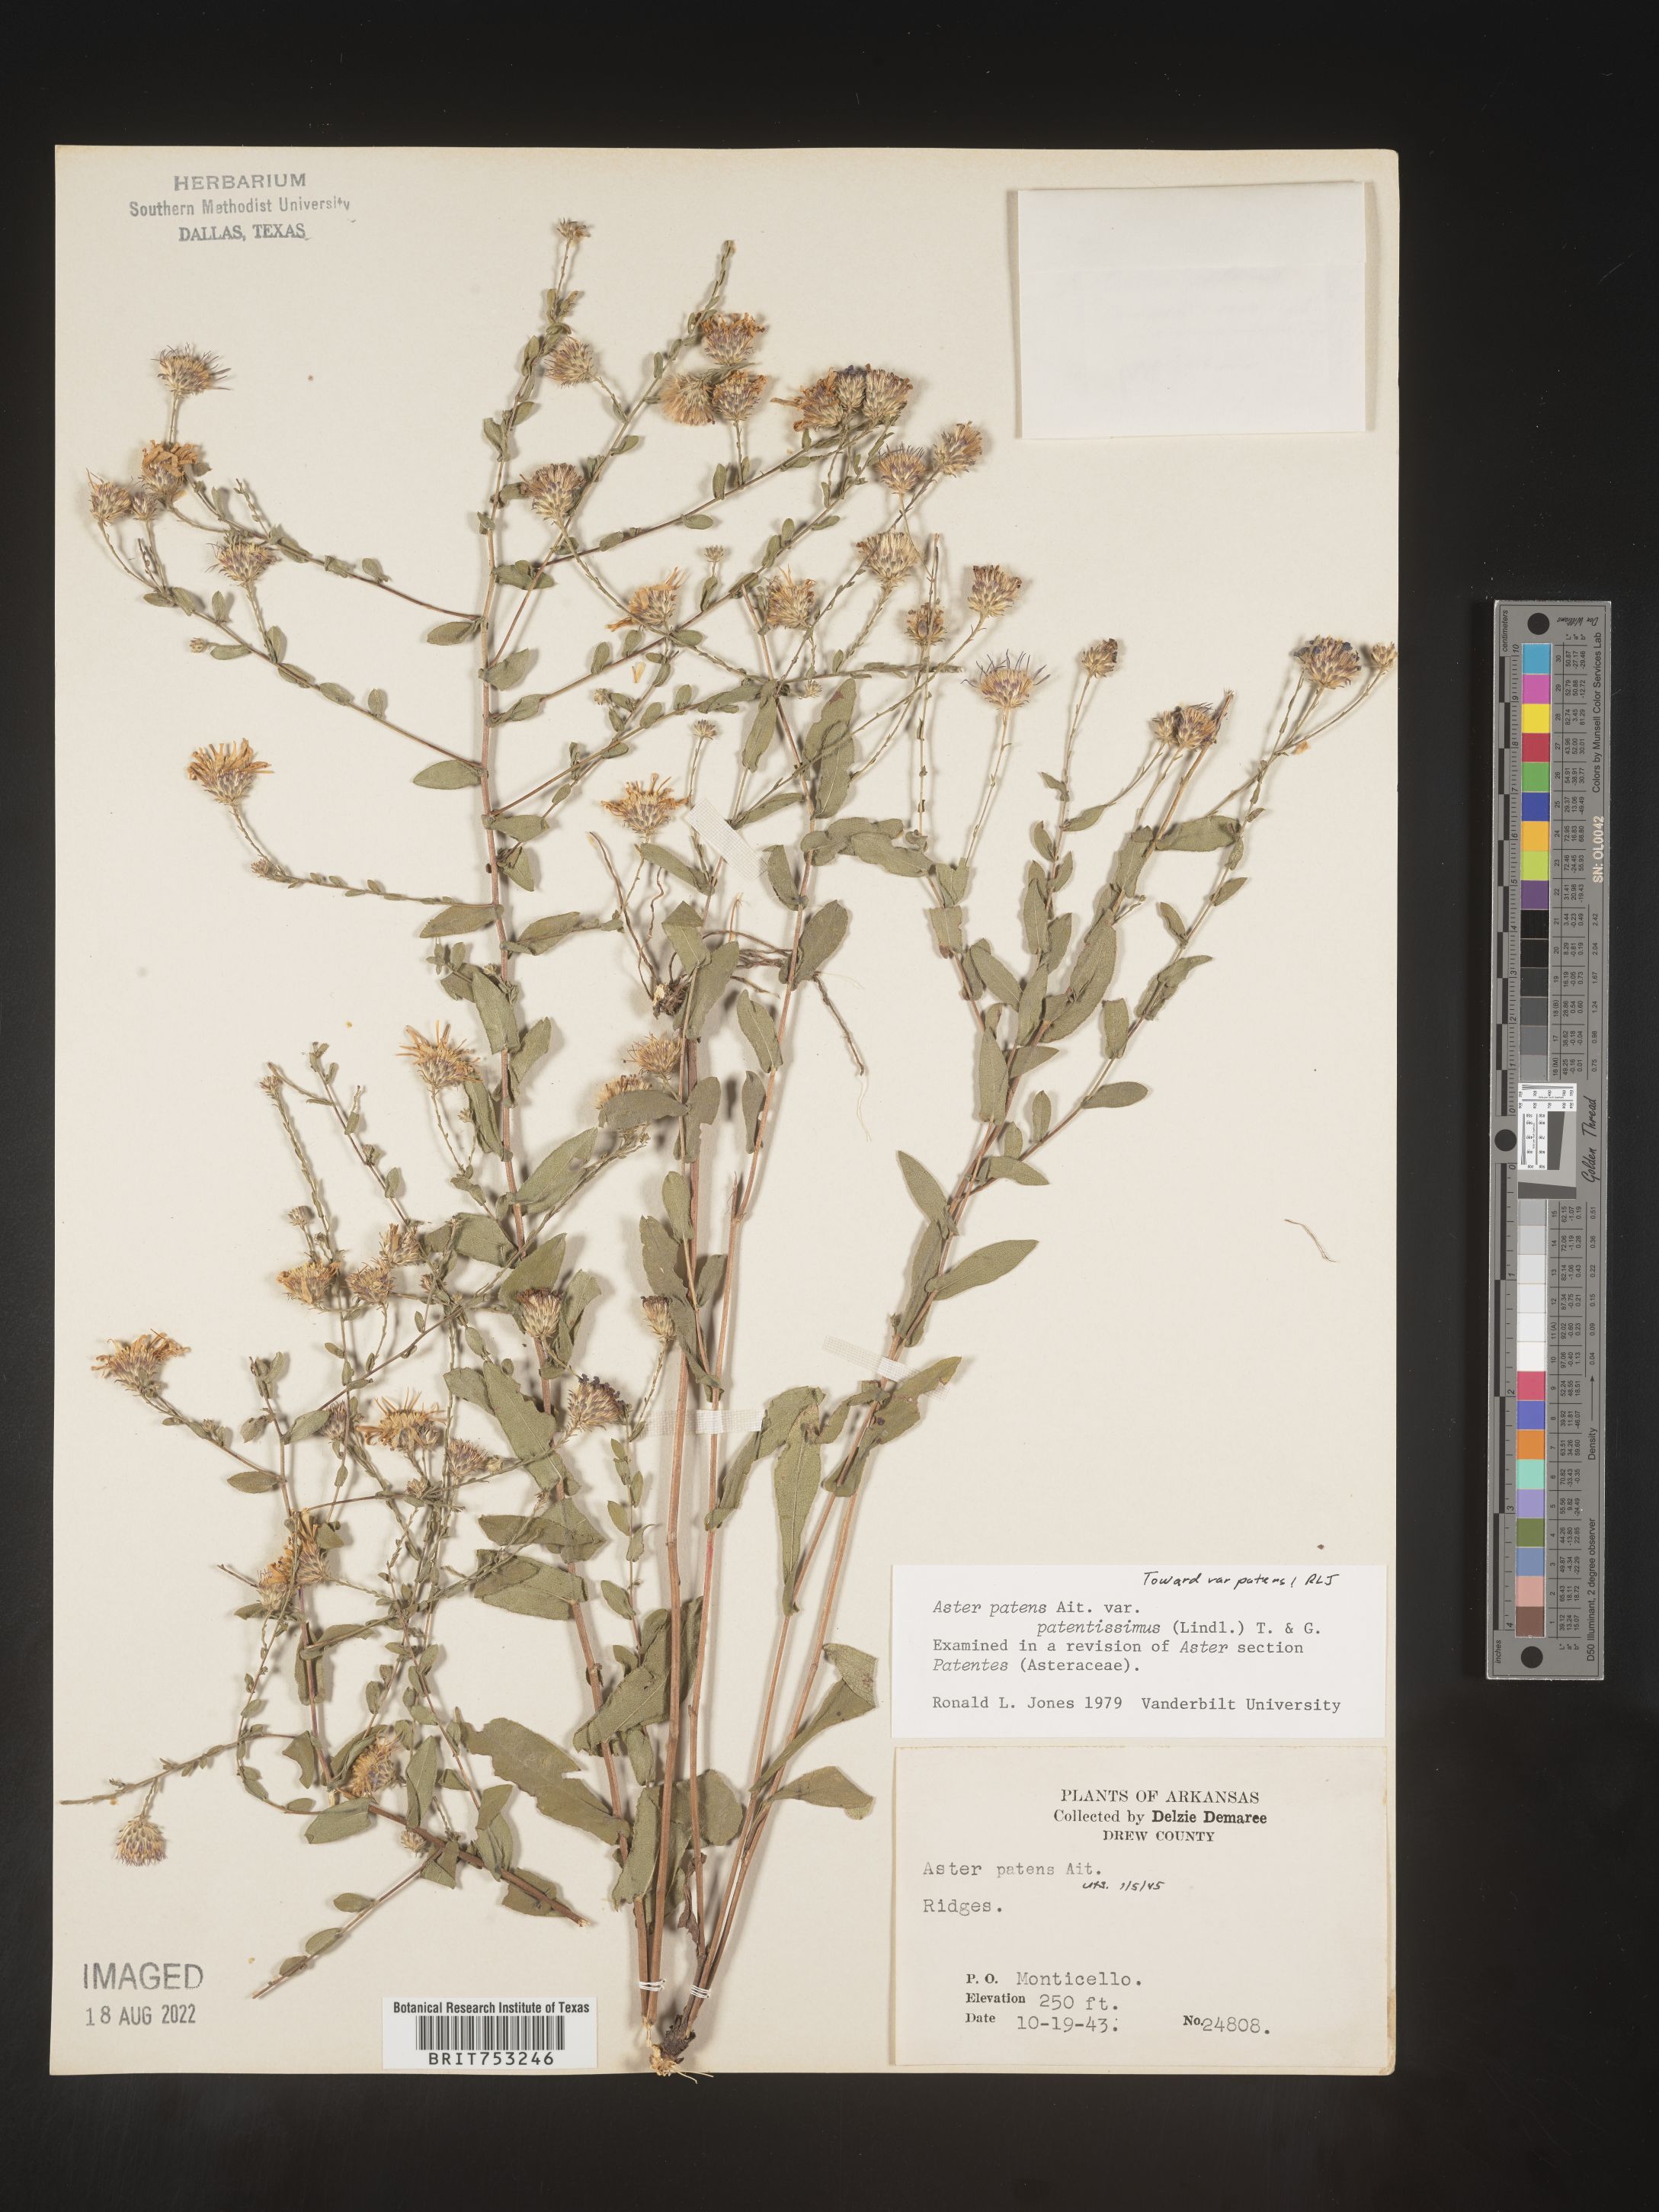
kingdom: Plantae
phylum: Tracheophyta
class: Magnoliopsida
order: Asterales
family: Asteraceae
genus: Symphyotrichum
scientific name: Symphyotrichum patens
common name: Late purple aster
